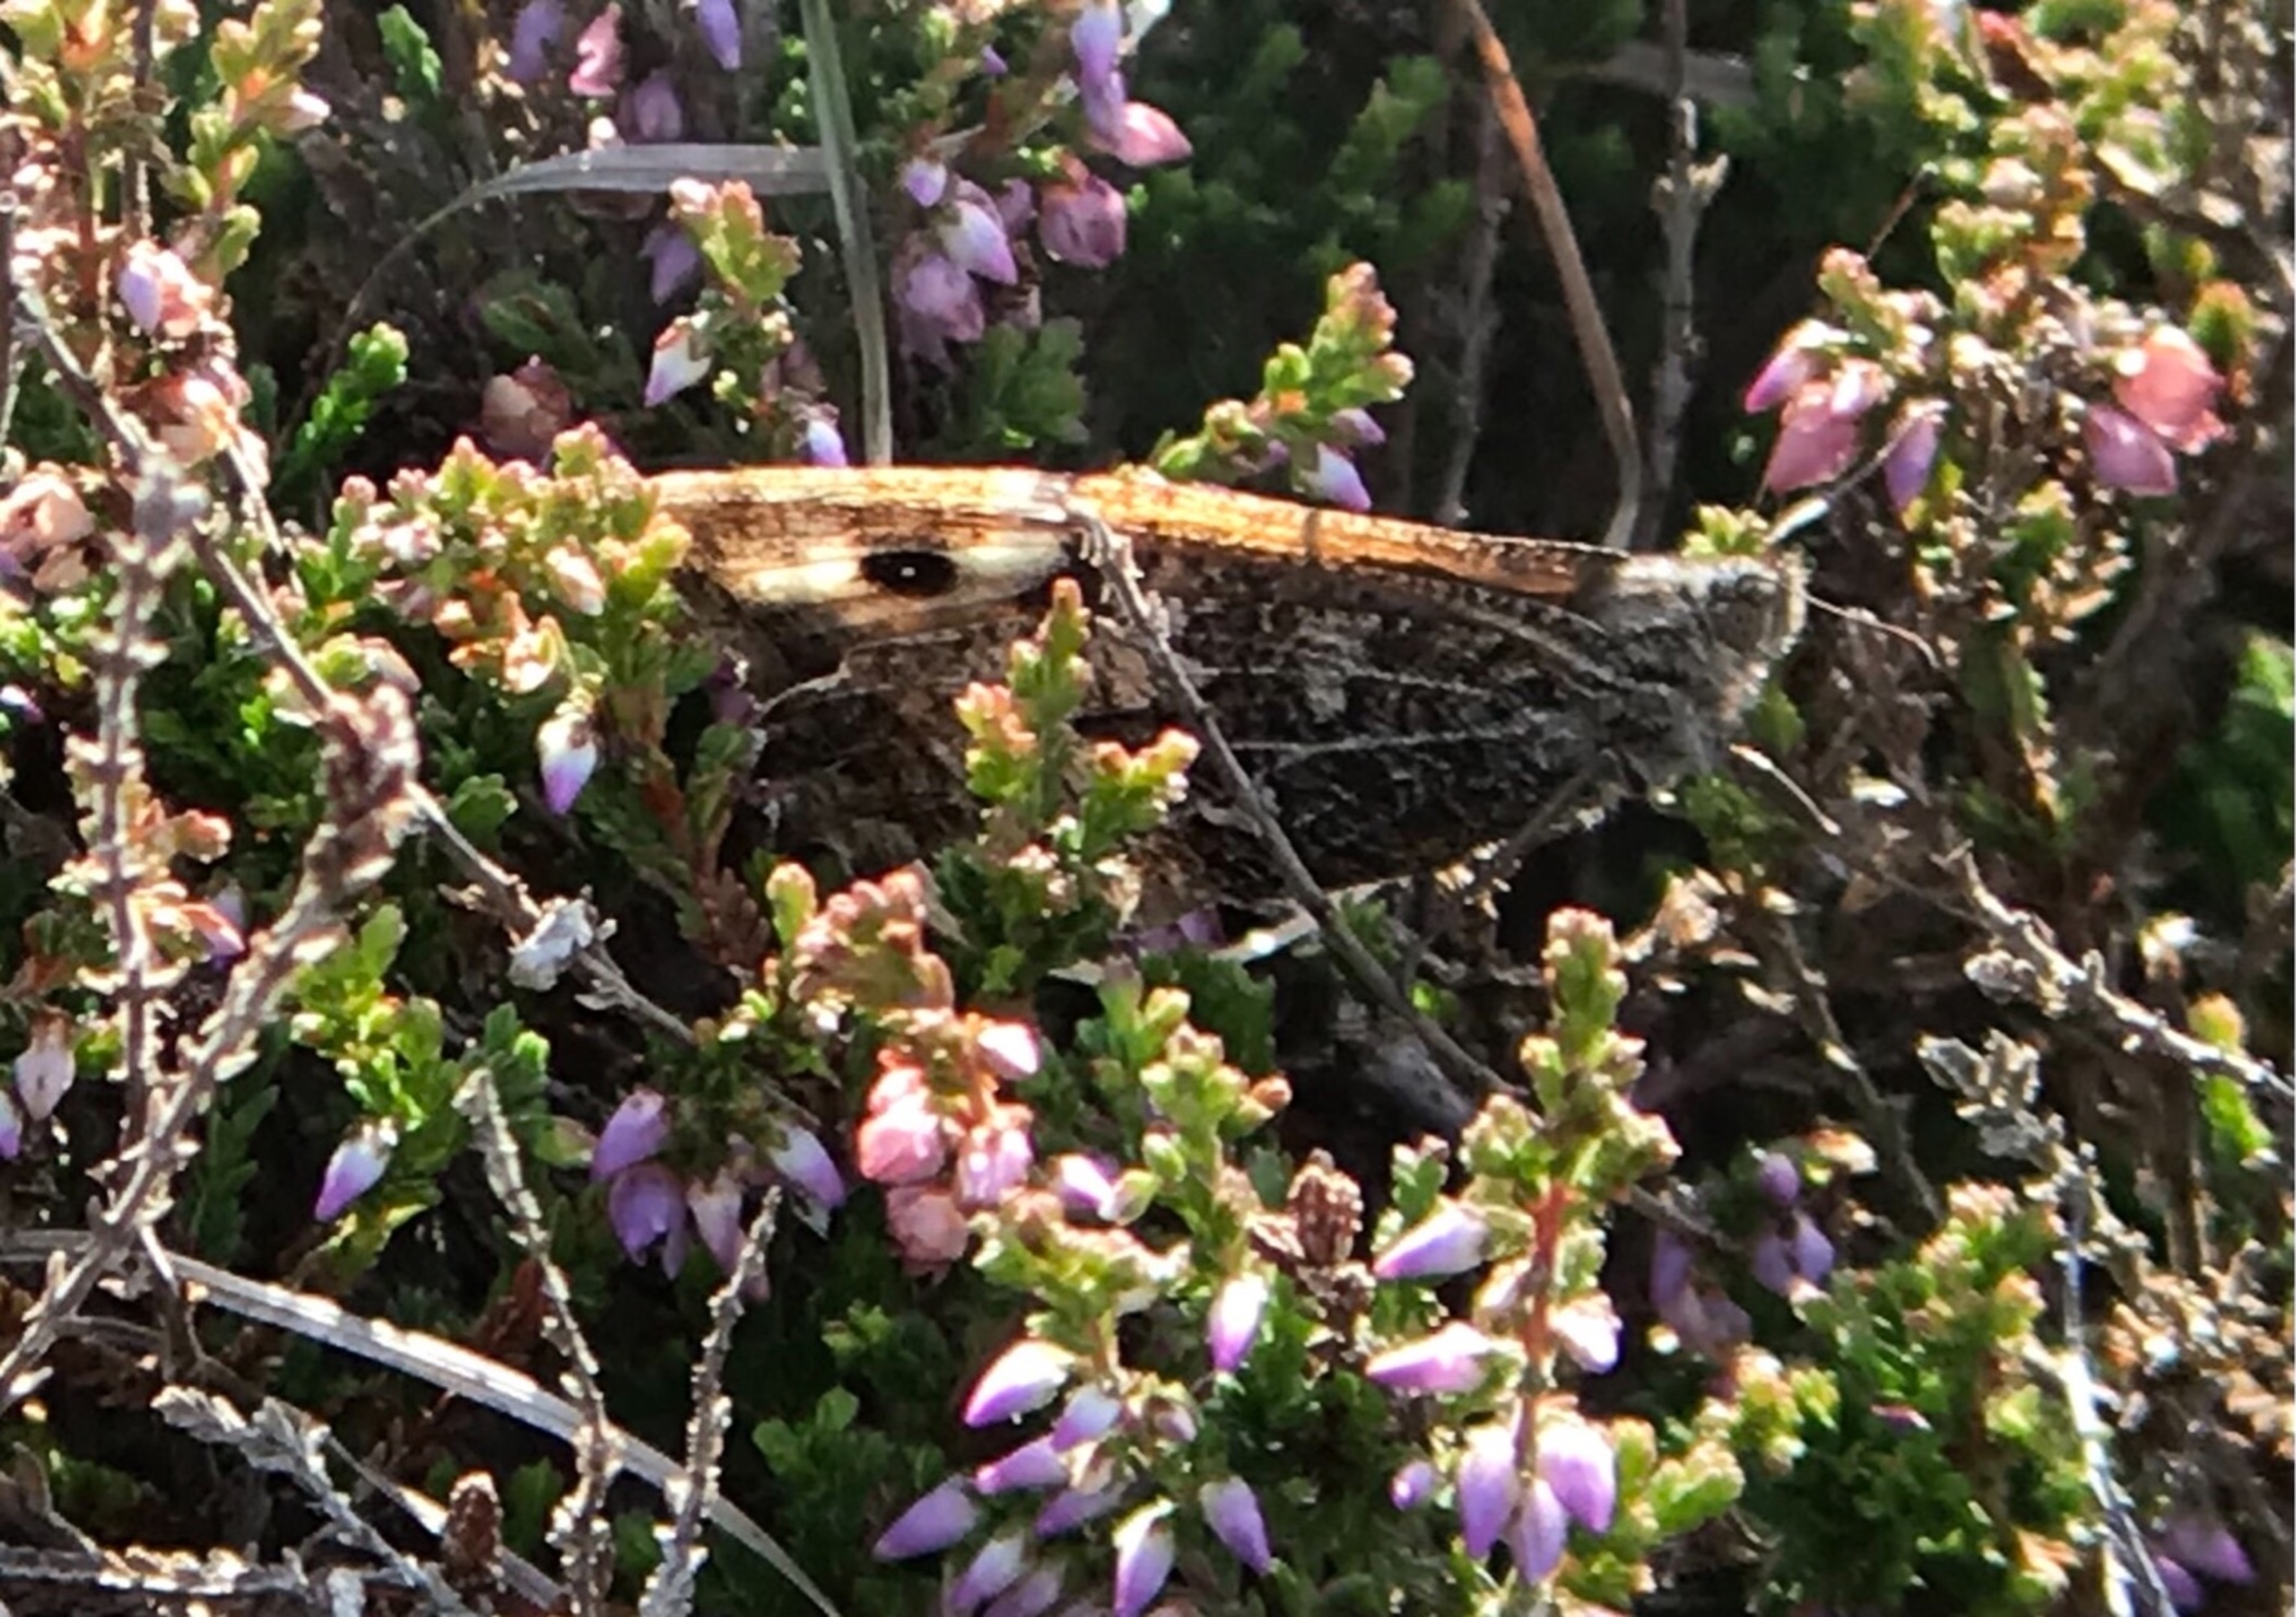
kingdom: Animalia
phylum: Arthropoda
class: Insecta
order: Lepidoptera
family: Nymphalidae
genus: Hipparchia
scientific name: Hipparchia semele
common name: Sandrandøje
